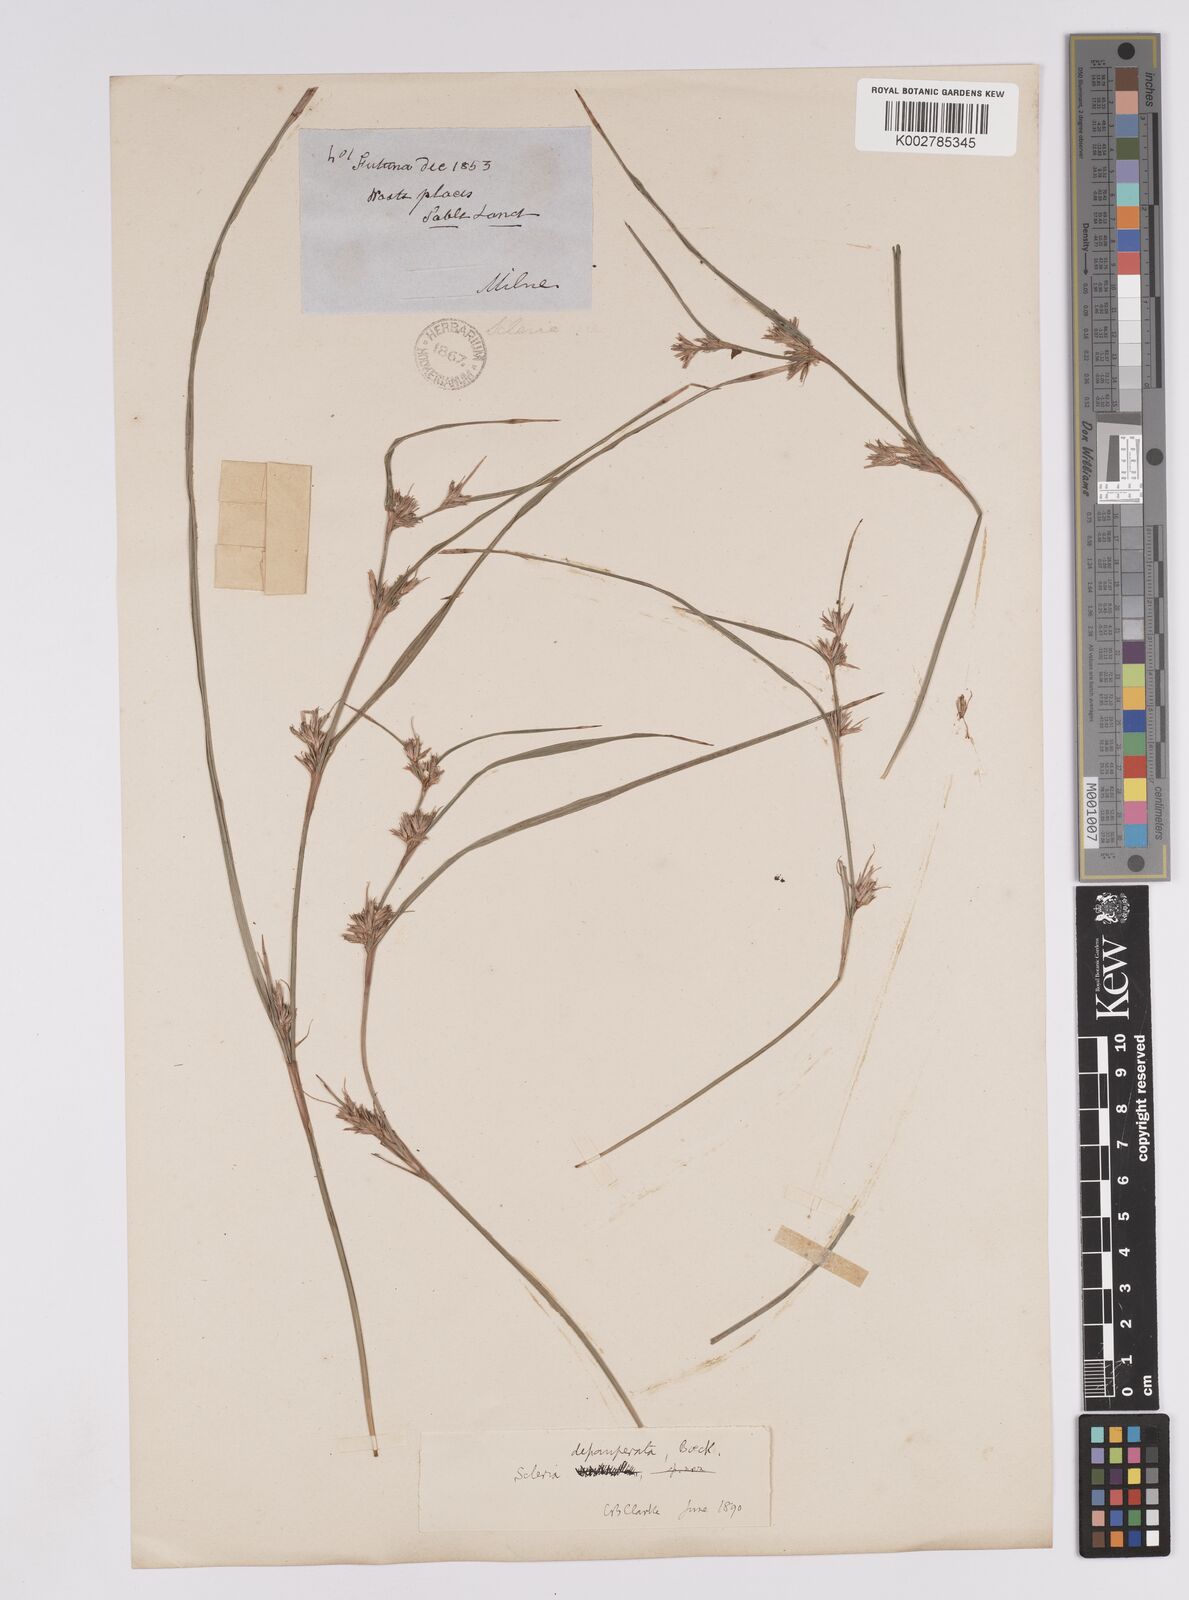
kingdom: Plantae
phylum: Tracheophyta
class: Liliopsida
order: Poales
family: Cyperaceae
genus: Scleria
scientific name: Scleria depauperata
